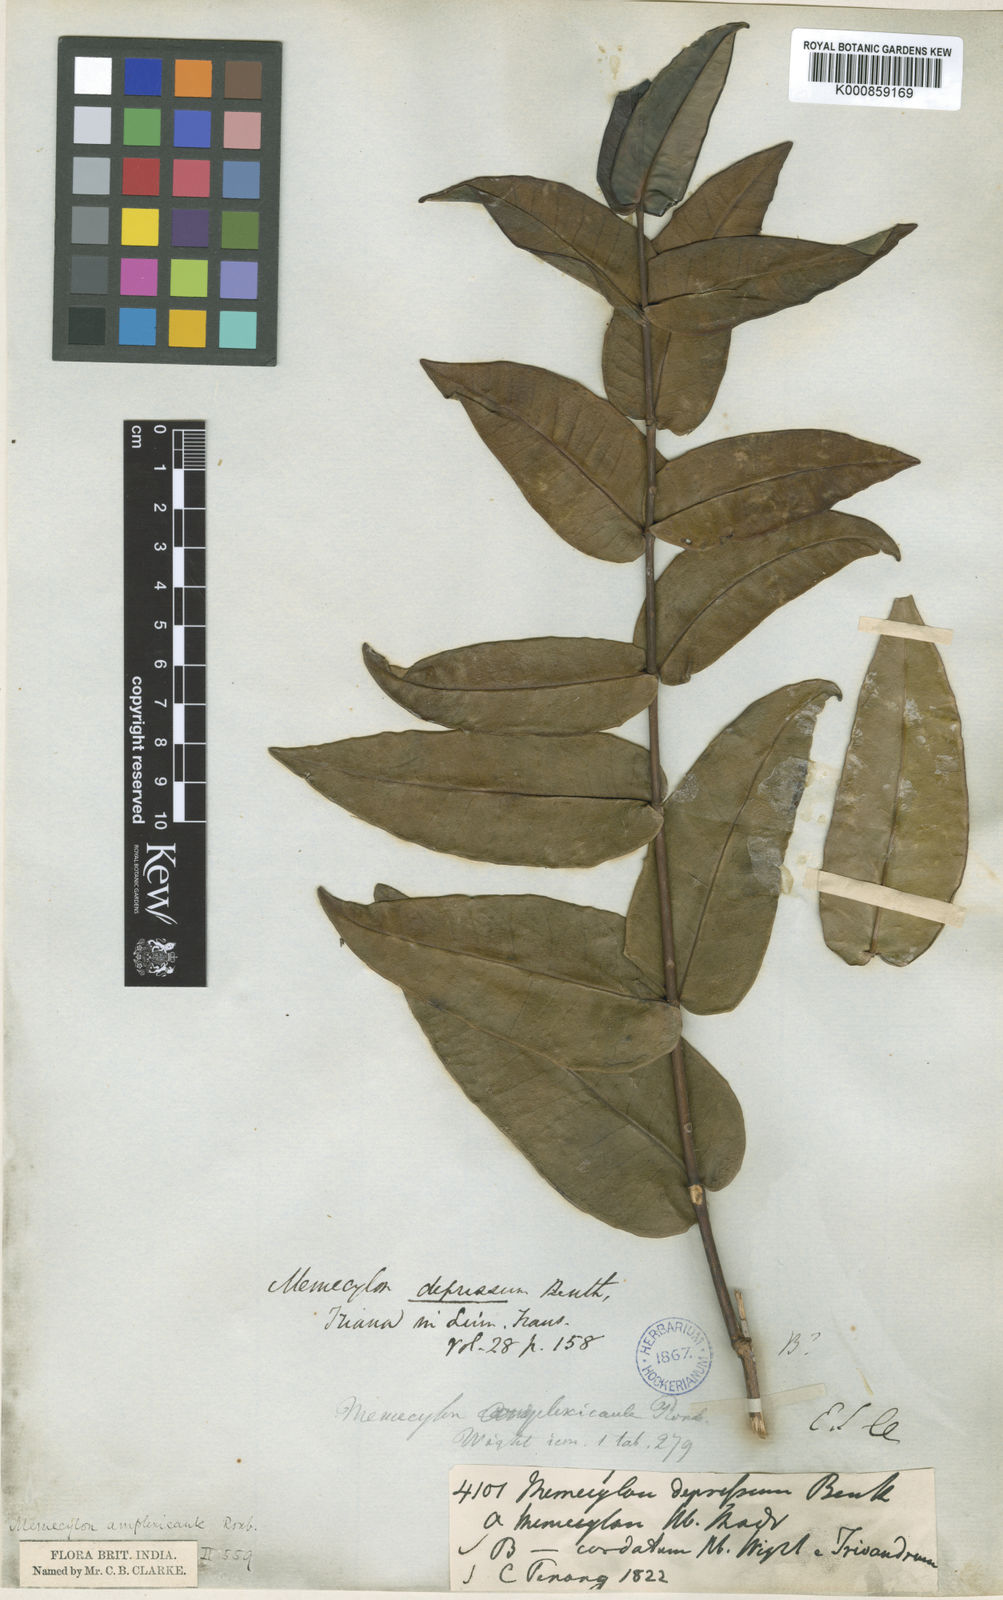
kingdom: Plantae
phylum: Tracheophyta
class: Magnoliopsida
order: Myrtales
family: Melastomataceae
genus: Memecylon
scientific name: Memecylon wallichii
